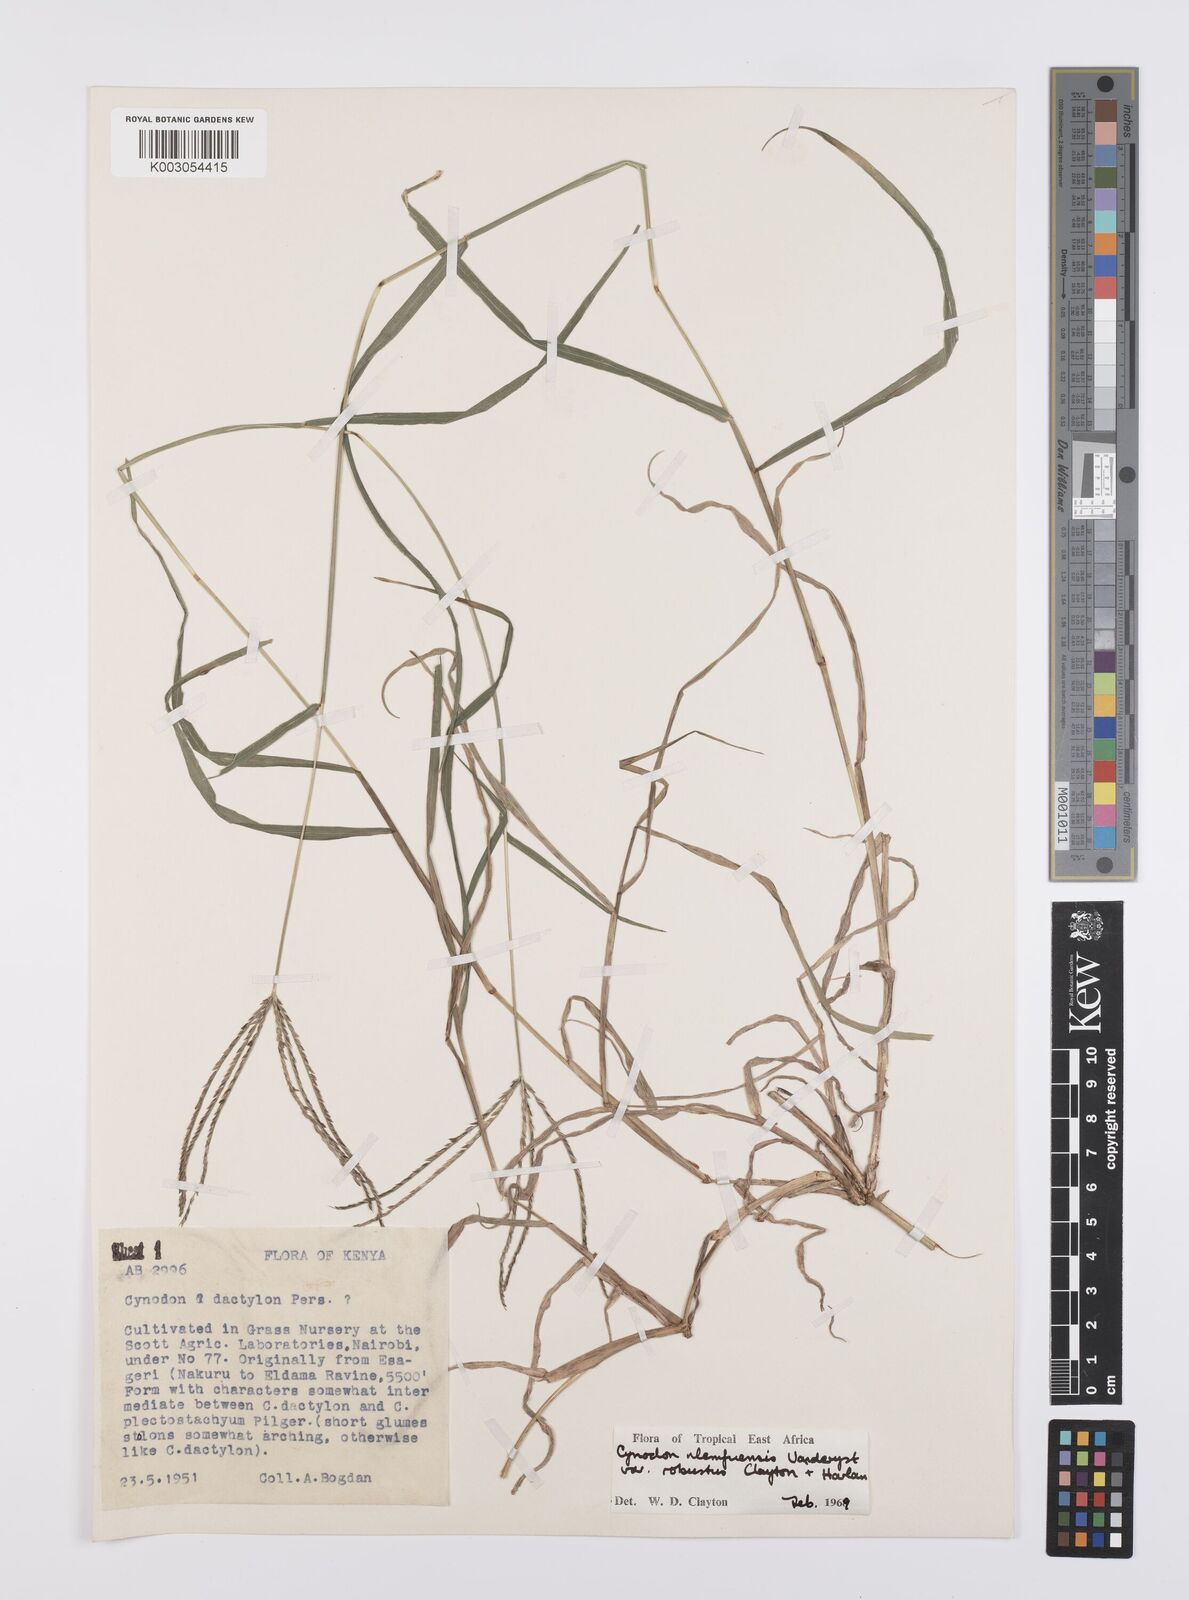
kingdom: Plantae
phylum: Tracheophyta
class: Liliopsida
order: Poales
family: Poaceae
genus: Cynodon
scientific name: Cynodon nlemfuensis
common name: African bermudagrass
